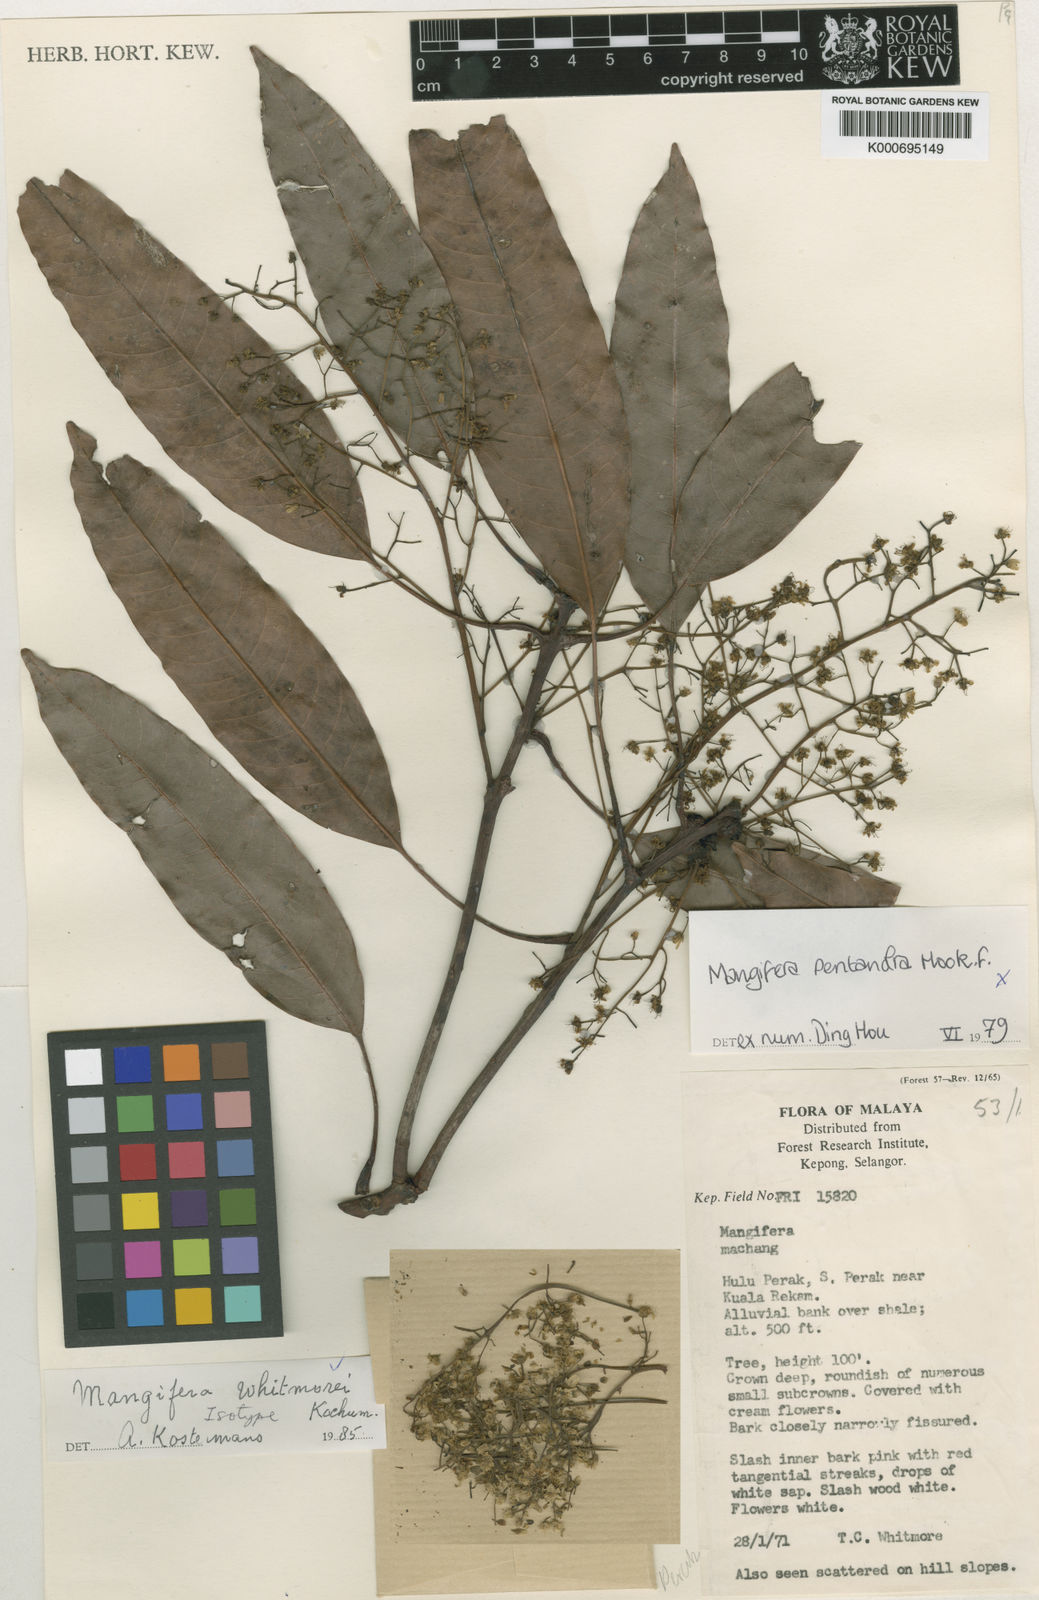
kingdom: Plantae
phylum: Tracheophyta
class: Magnoliopsida
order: Sapindales
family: Anacardiaceae
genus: Swintonia
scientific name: Swintonia whitmorei
